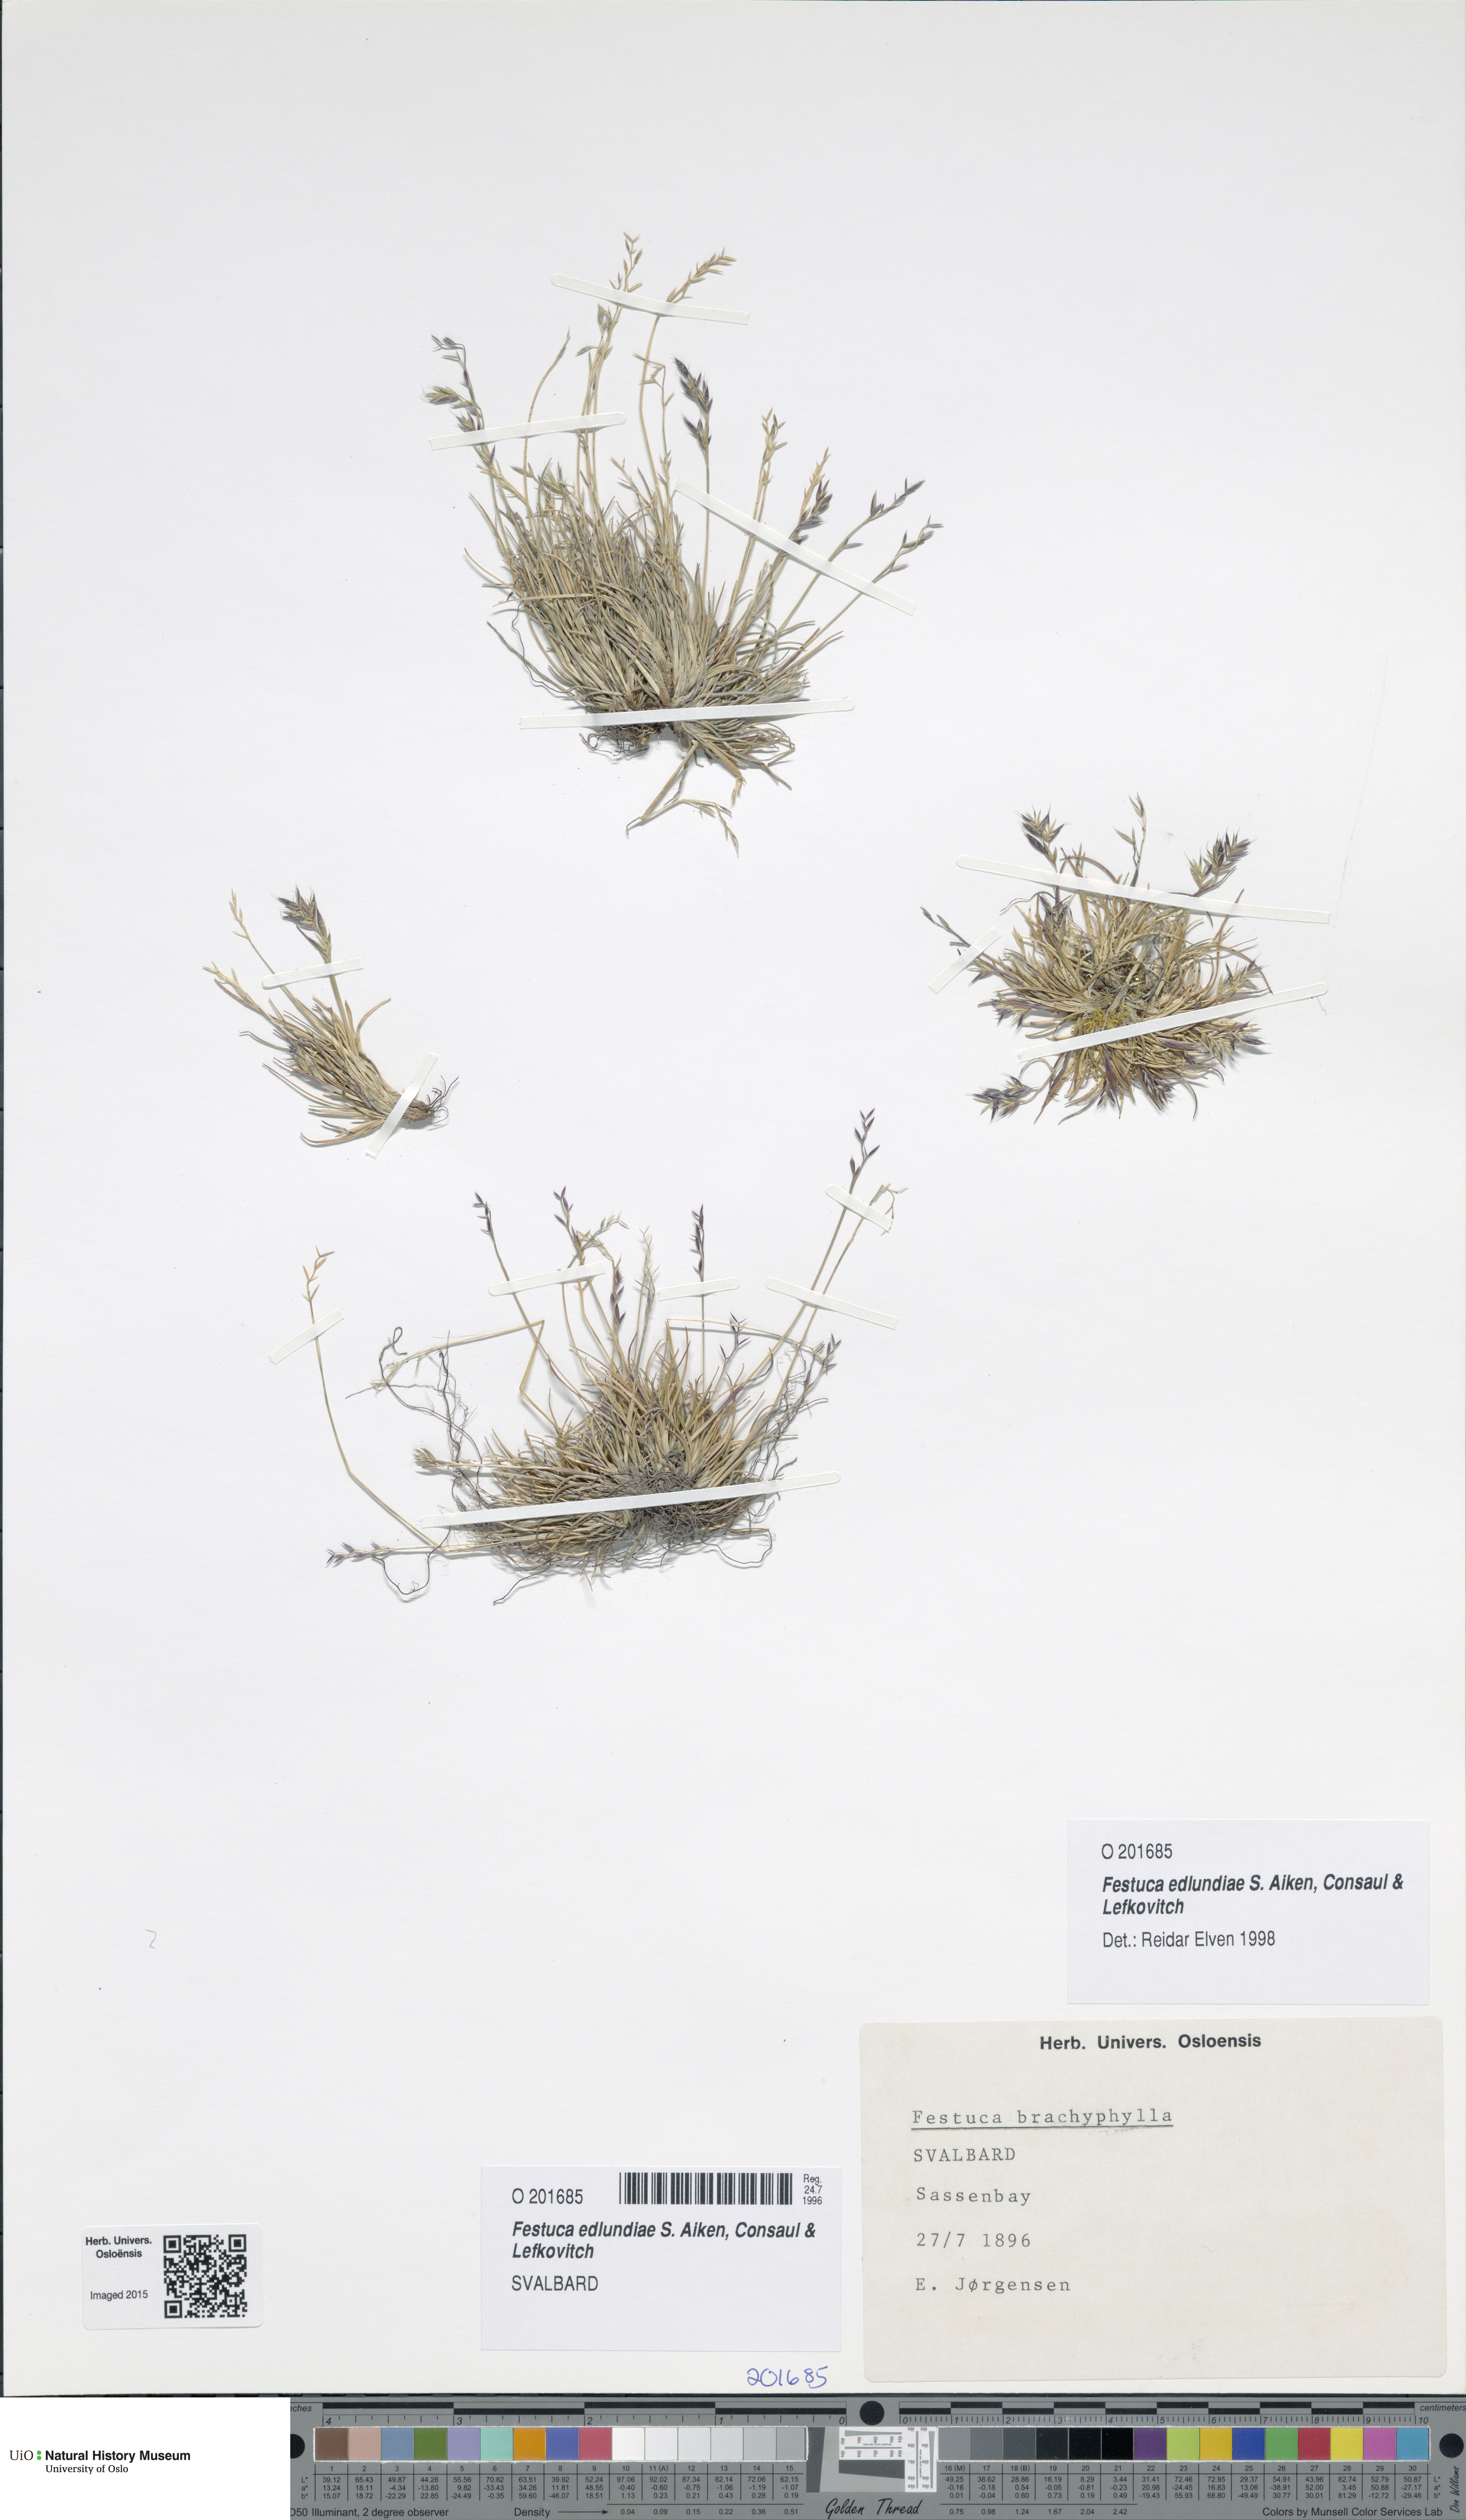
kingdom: Plantae
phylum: Tracheophyta
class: Liliopsida
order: Poales
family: Poaceae
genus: Festuca
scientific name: Festuca edlundiae
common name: Edlund's fescue
